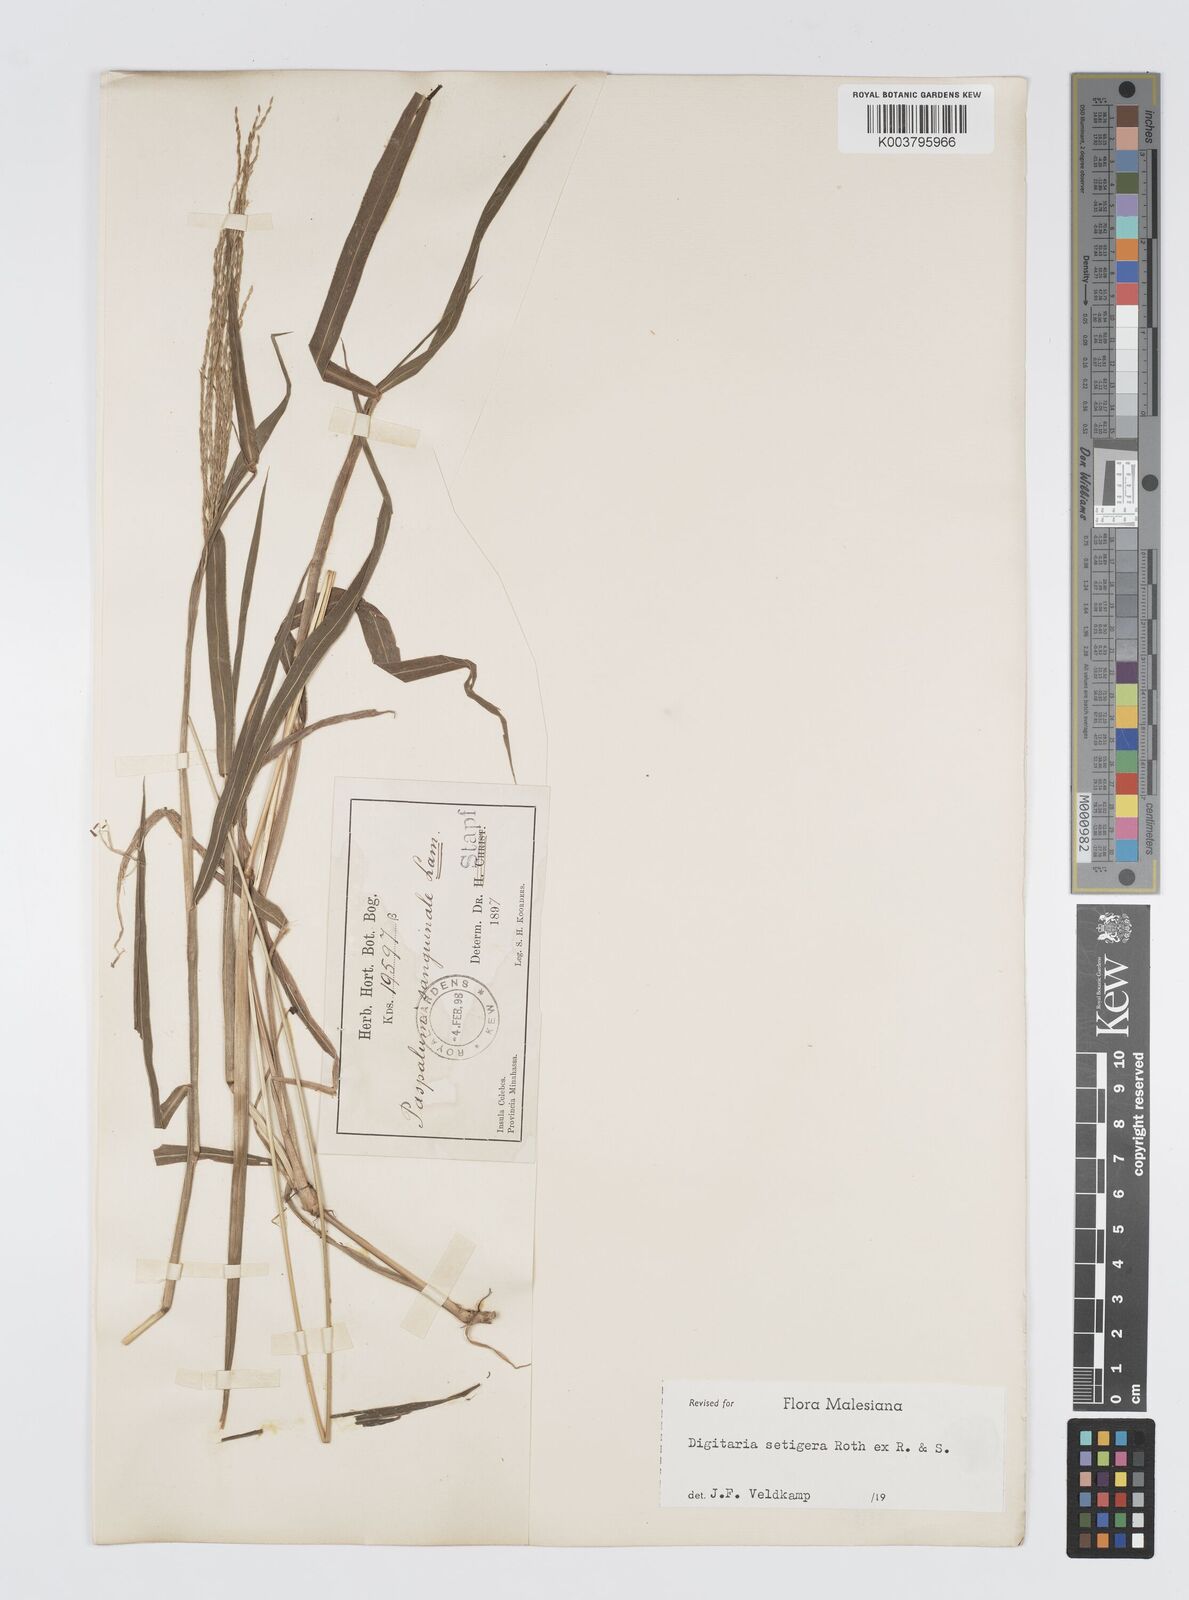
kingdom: Plantae
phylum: Tracheophyta
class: Liliopsida
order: Poales
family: Poaceae
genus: Digitaria
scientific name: Digitaria setigera
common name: East indian crabgrass
